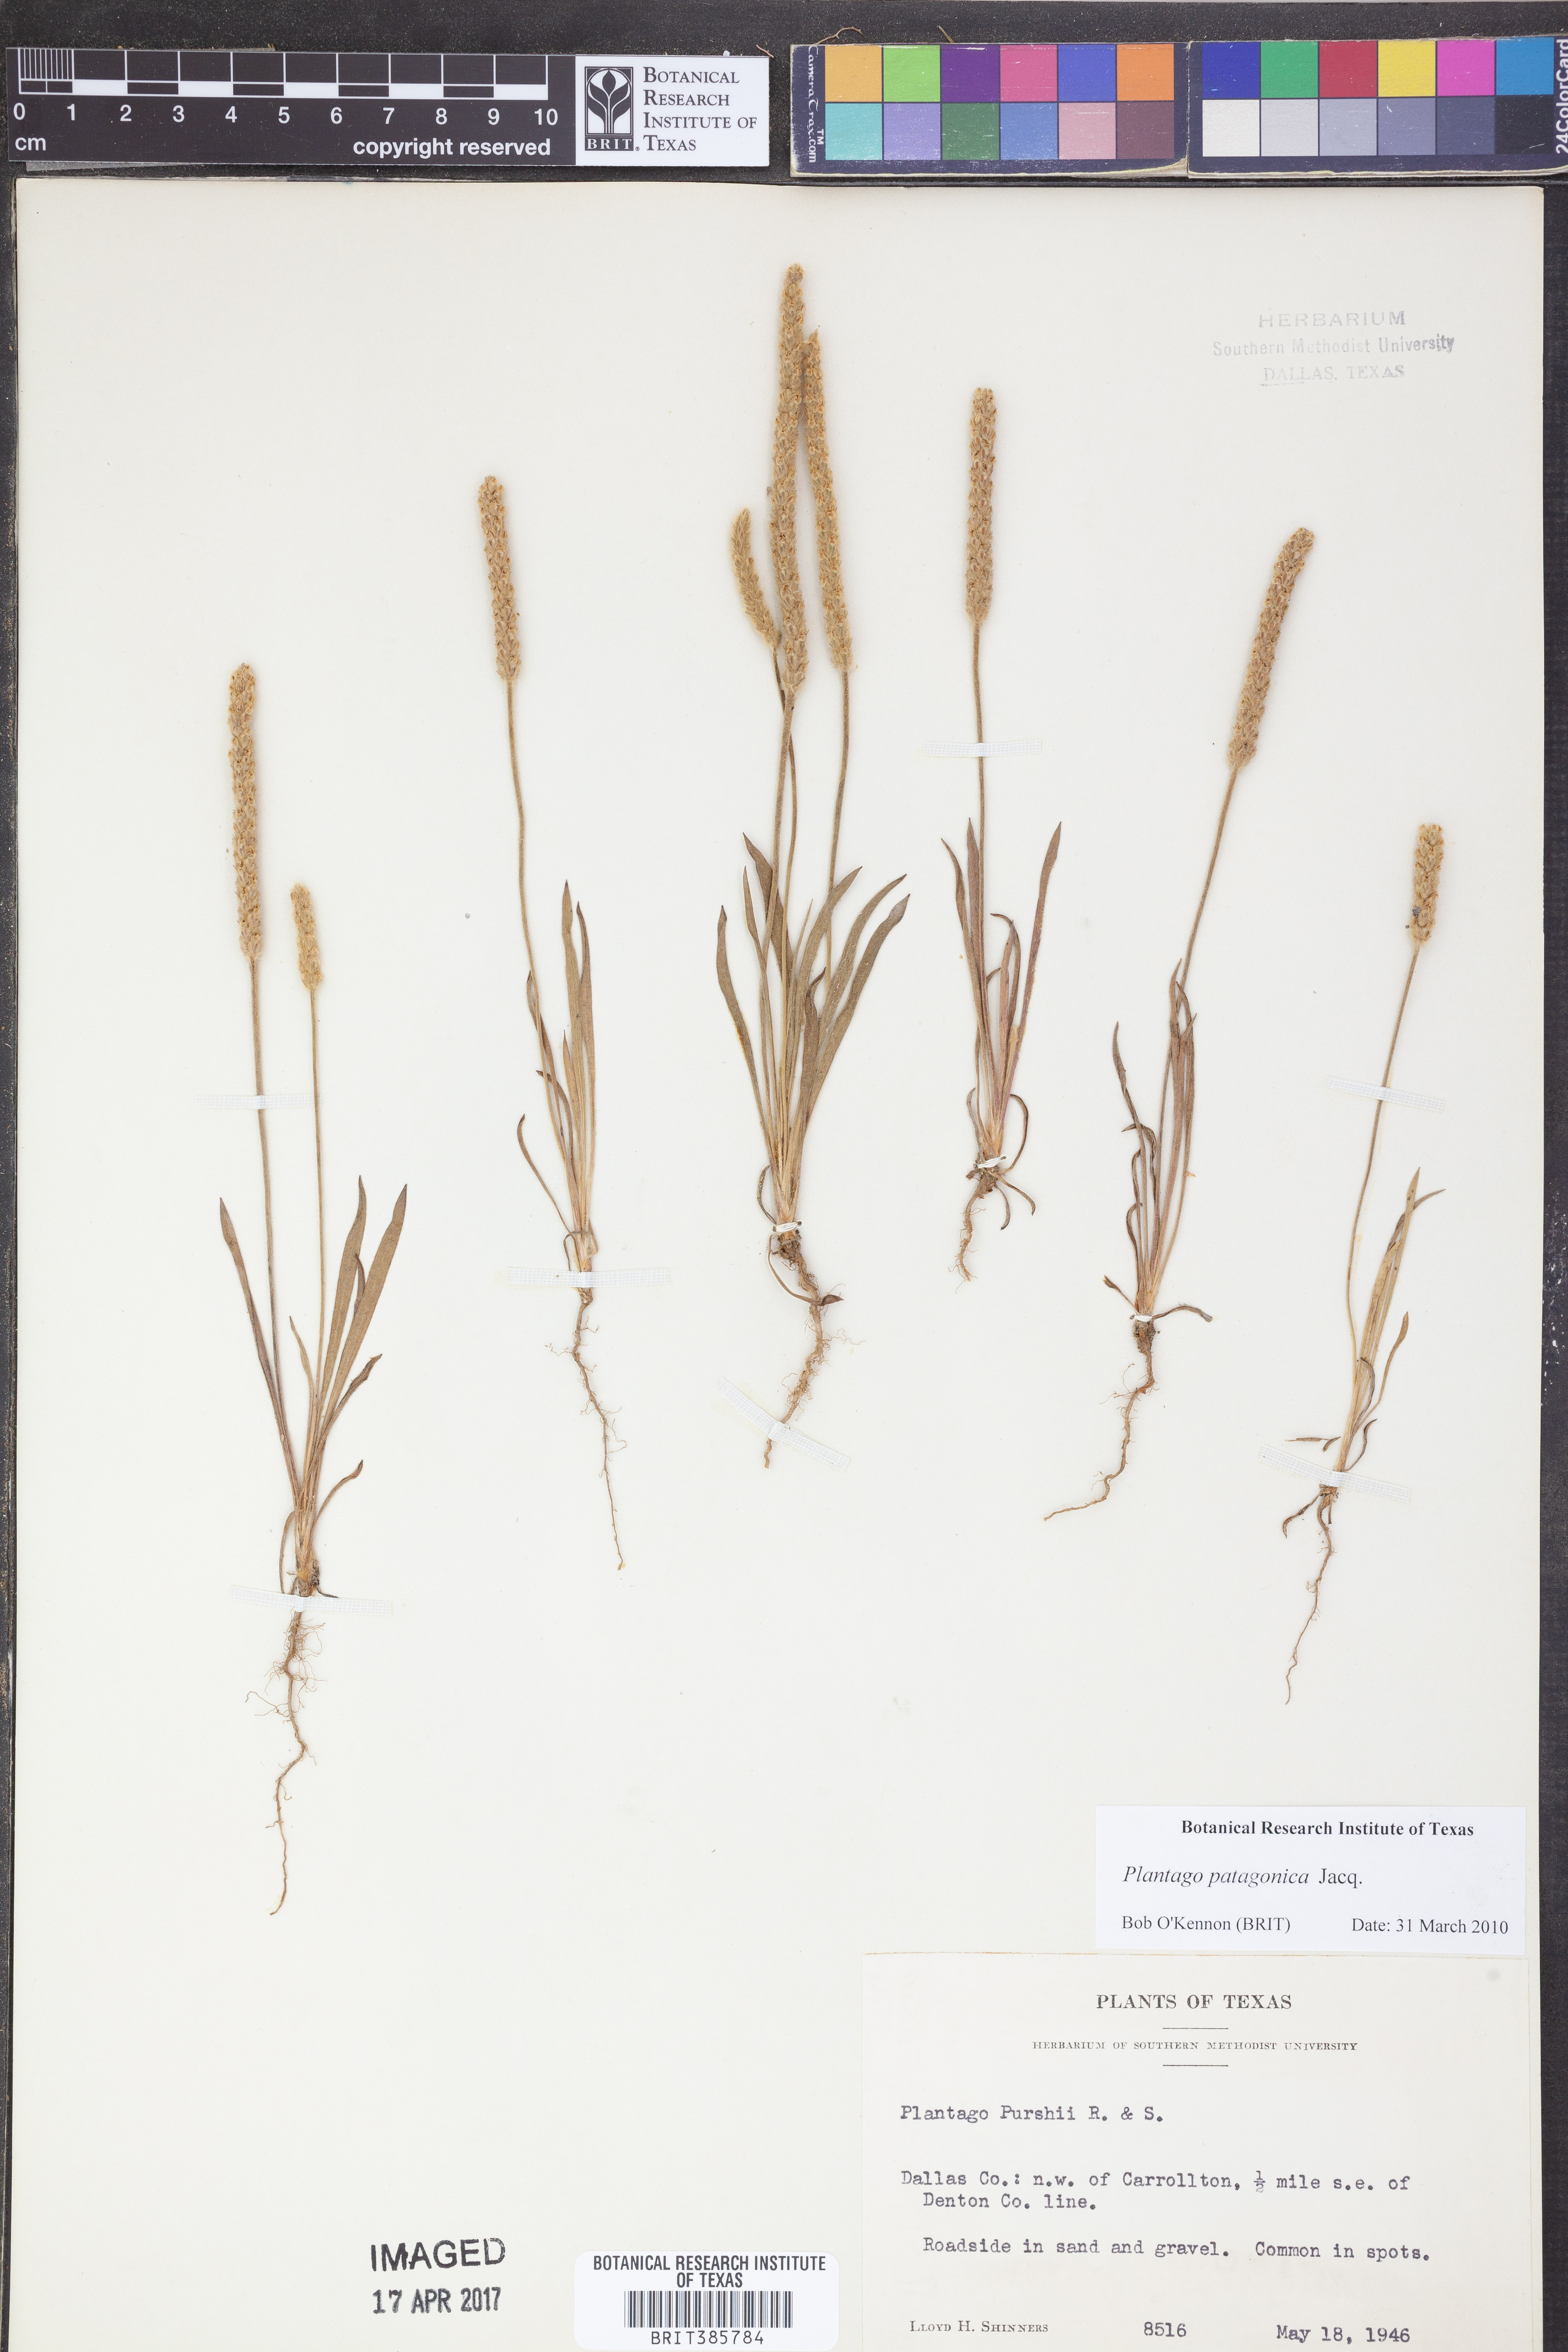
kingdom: Plantae
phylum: Tracheophyta
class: Magnoliopsida
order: Lamiales
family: Plantaginaceae
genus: Plantago
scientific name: Plantago patagonica
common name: Patagonia indian-wheat
